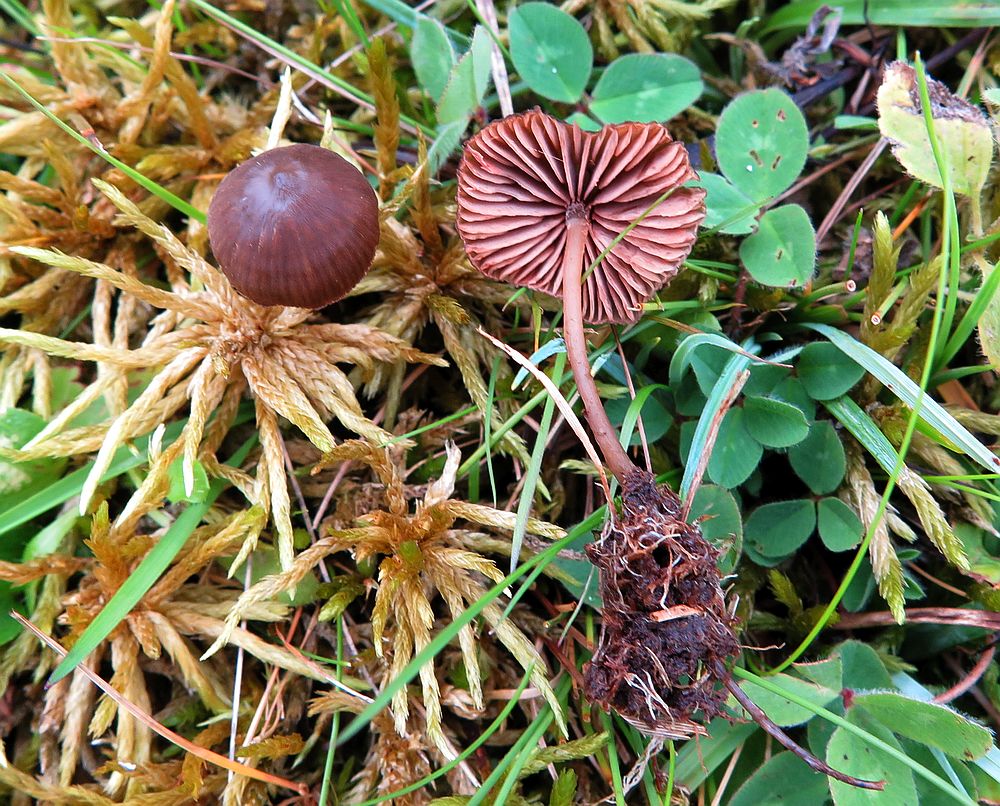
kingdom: Fungi
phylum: Basidiomycota
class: Agaricomycetes
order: Agaricales
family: Entolomataceae
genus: Entoloma
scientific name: Entoloma infula
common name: hvidbladet rødblad
